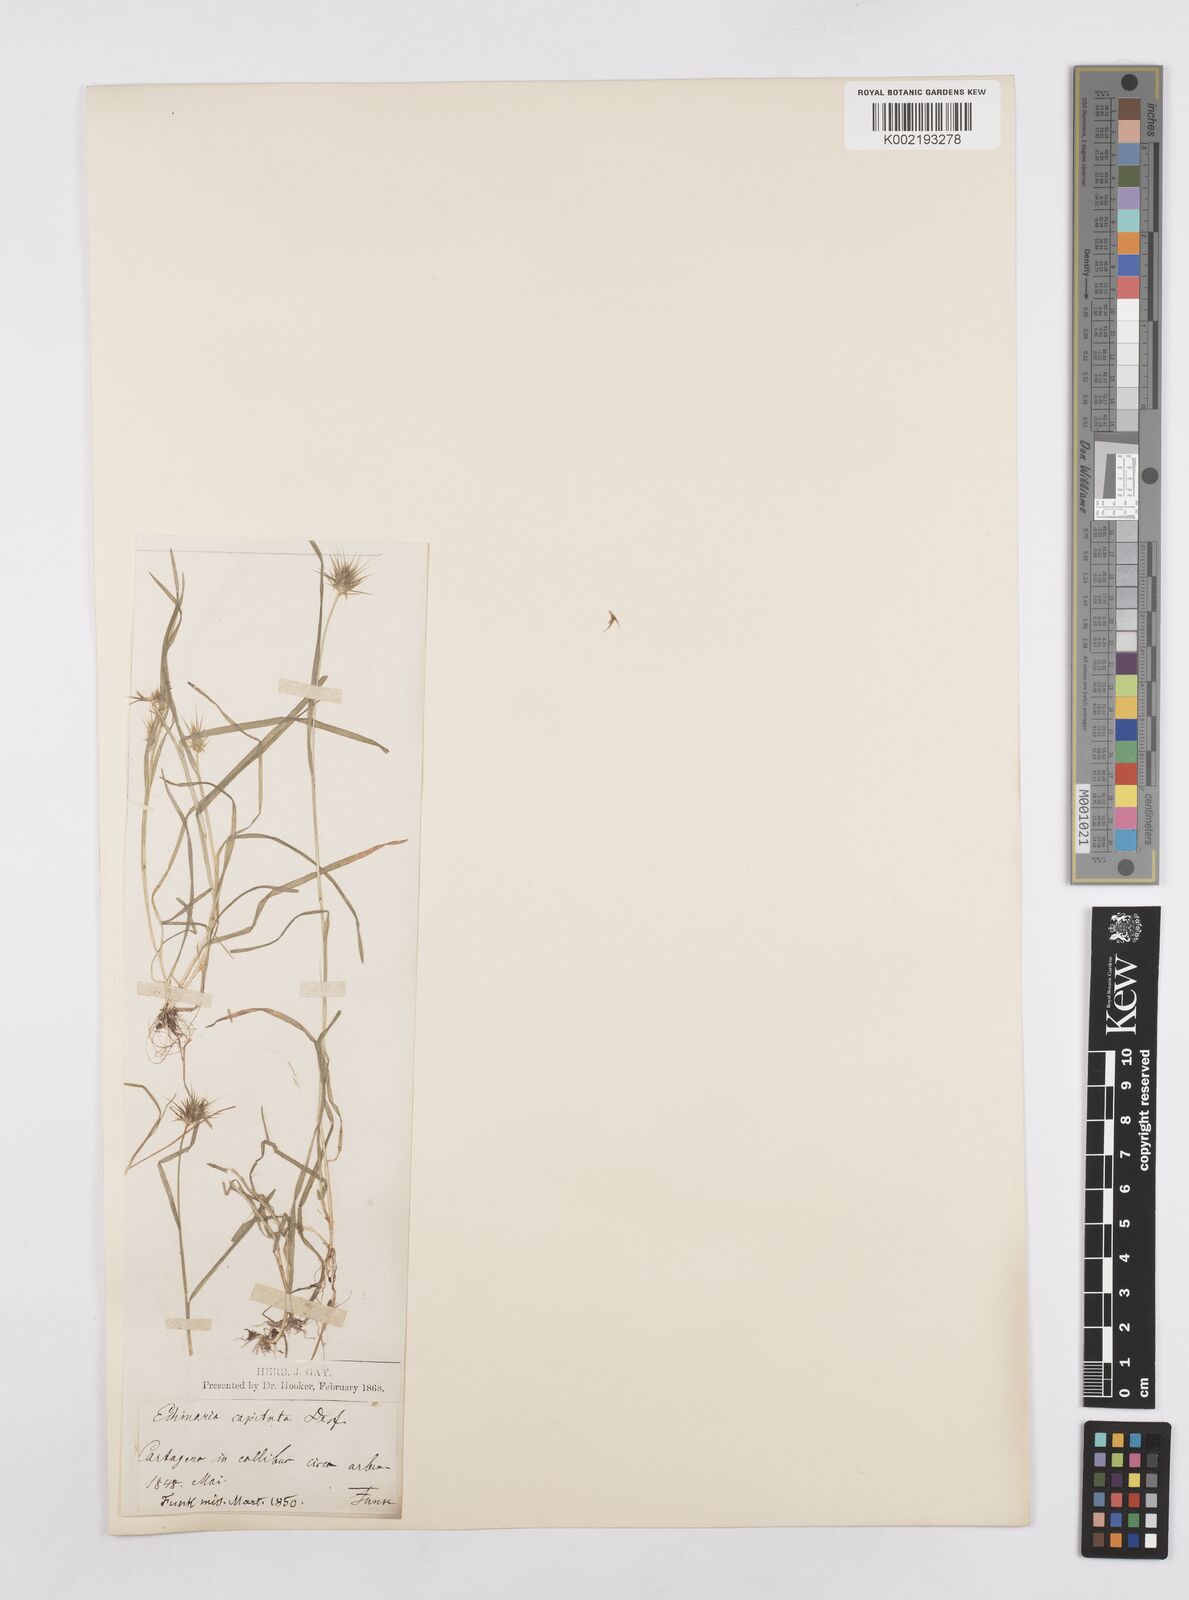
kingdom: Plantae
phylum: Tracheophyta
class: Liliopsida
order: Poales
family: Poaceae
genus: Echinaria
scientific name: Echinaria capitata
